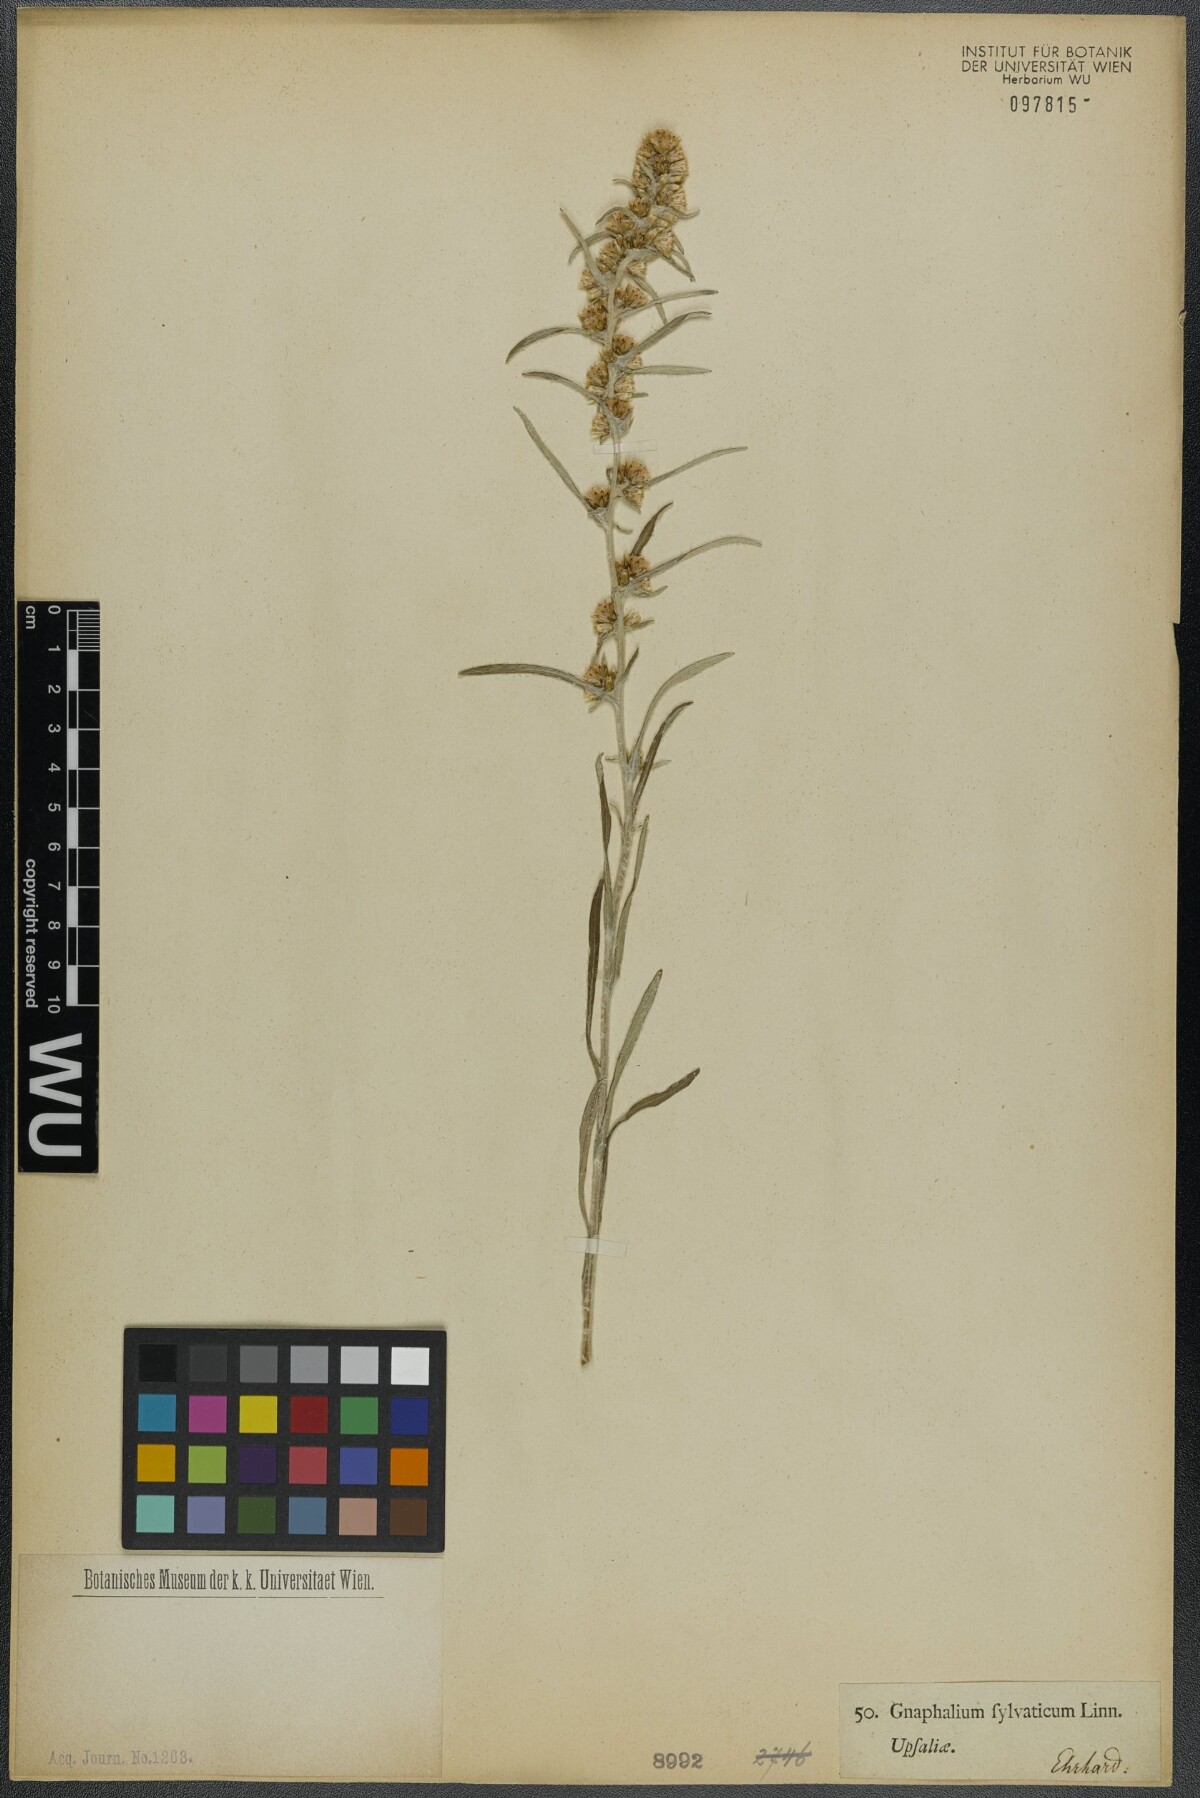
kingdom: Plantae
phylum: Tracheophyta
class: Magnoliopsida
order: Asterales
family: Asteraceae
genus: Omalotheca
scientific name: Omalotheca sylvatica
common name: Heath cudweed
